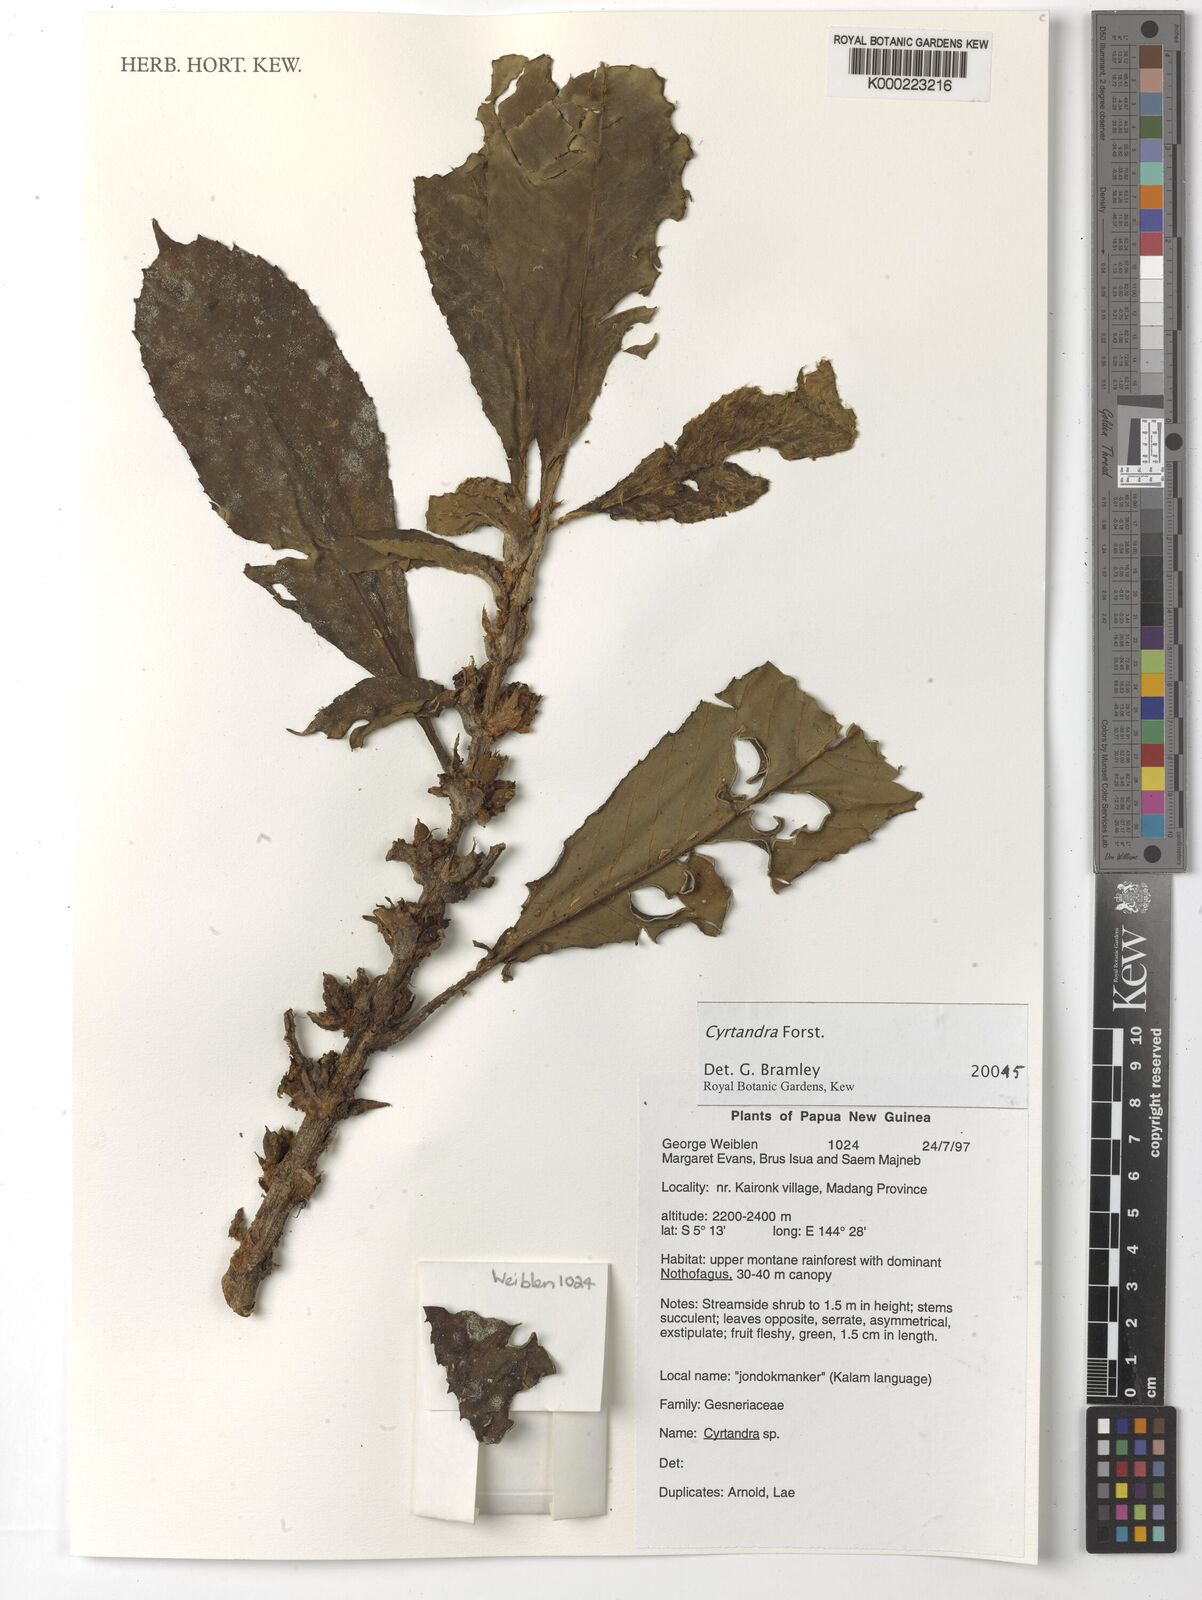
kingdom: Plantae
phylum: Tracheophyta
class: Magnoliopsida
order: Lamiales
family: Gesneriaceae
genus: Cyrtandra
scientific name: Cyrtandra
